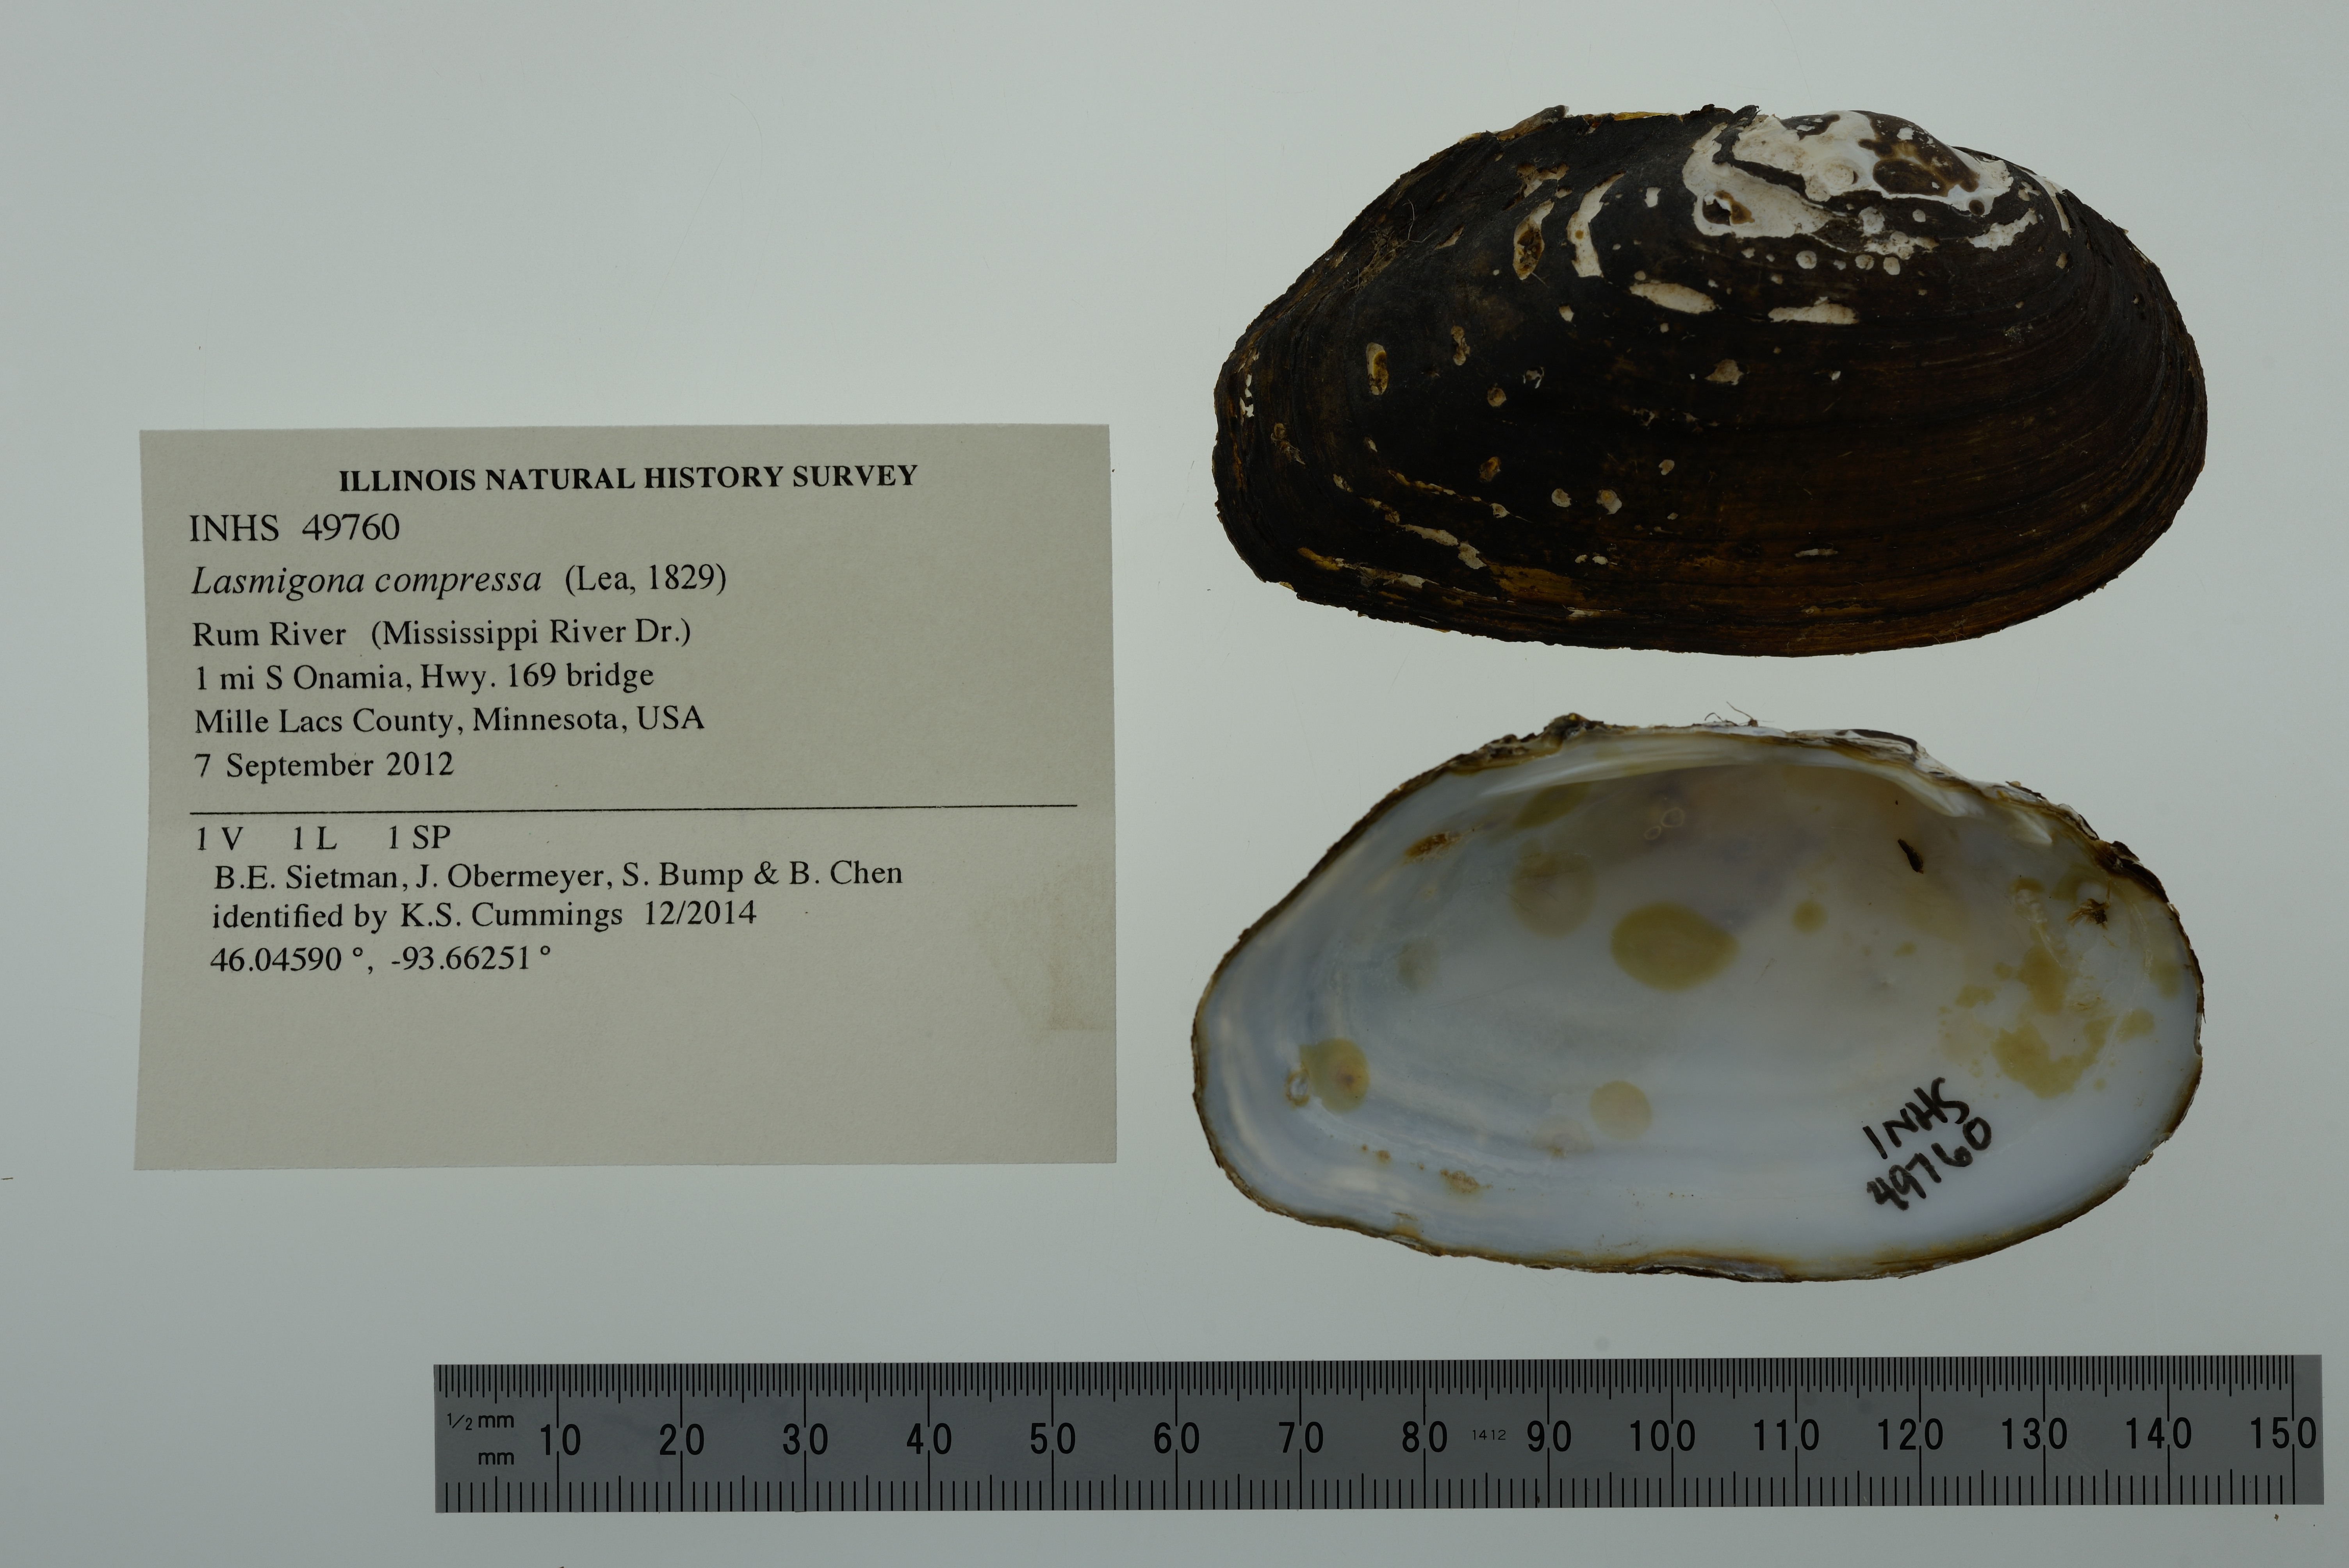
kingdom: Animalia
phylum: Mollusca
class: Bivalvia
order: Unionida
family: Unionidae
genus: Lasmigona
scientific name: Lasmigona compressa
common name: Creek heelsplitter
